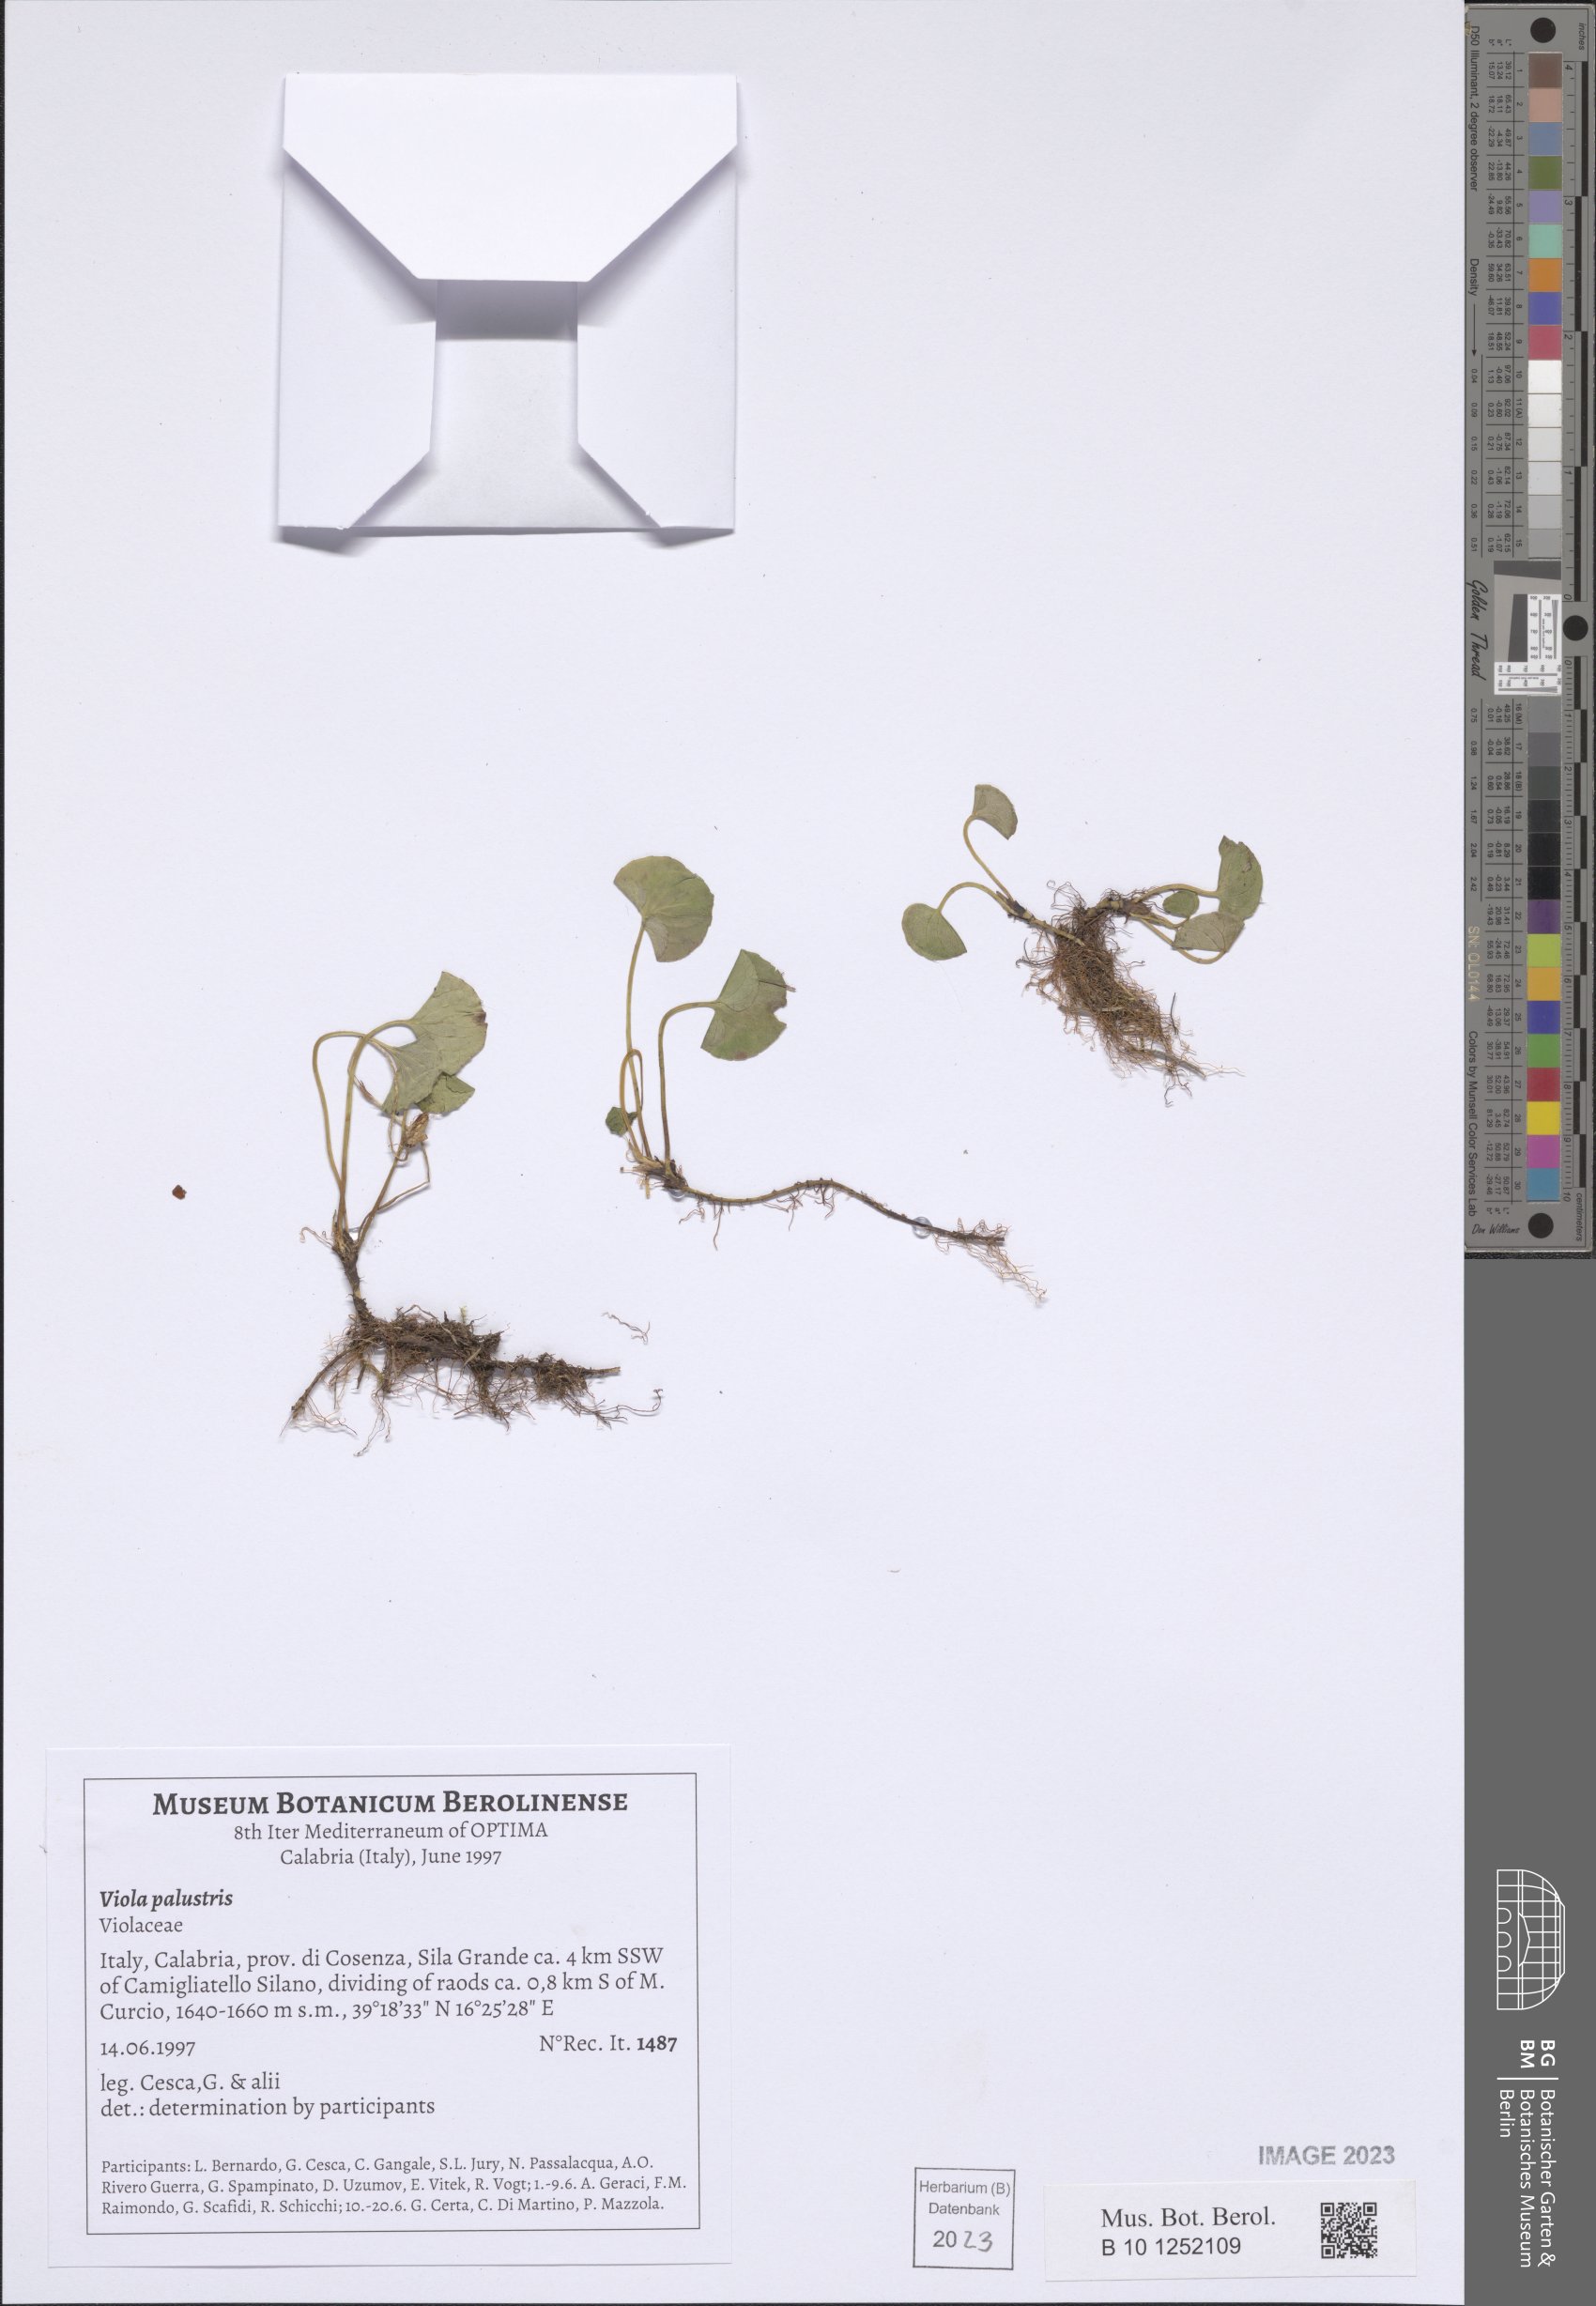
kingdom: Plantae
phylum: Tracheophyta
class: Magnoliopsida
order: Malpighiales
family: Violaceae
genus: Viola
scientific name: Viola palustris
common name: Marsh violet
